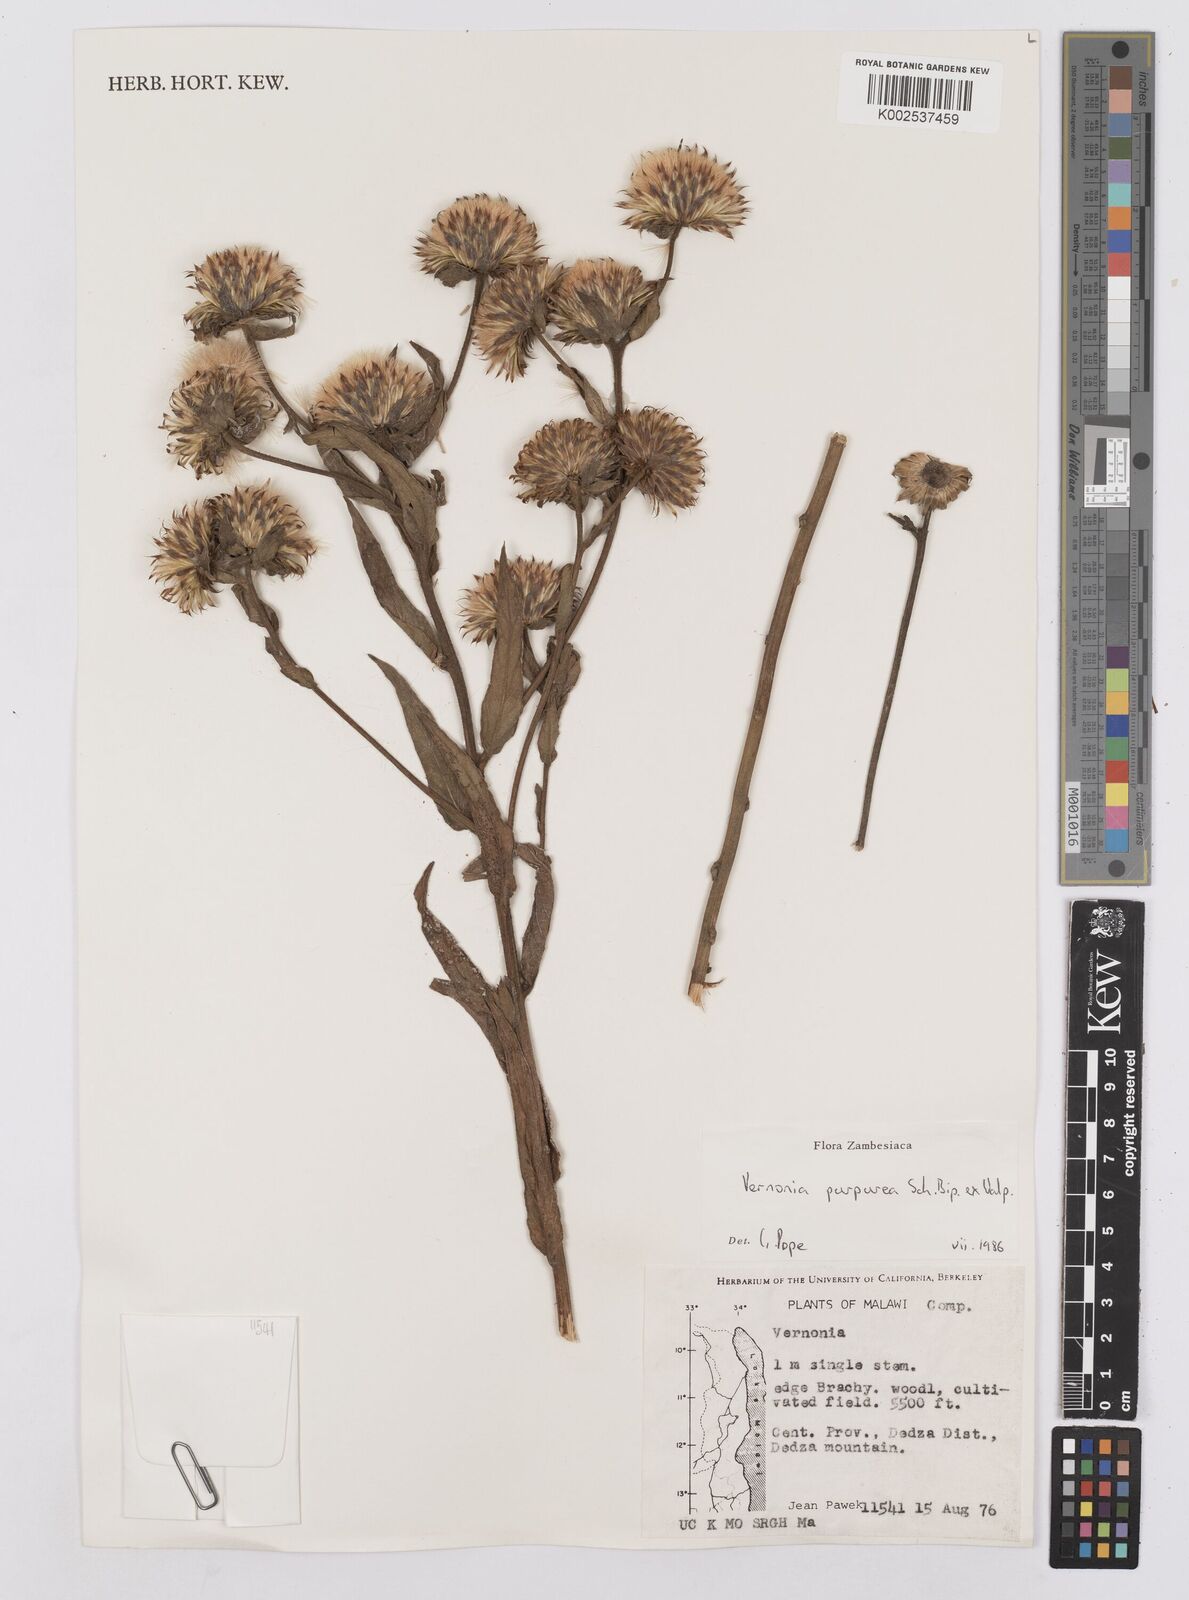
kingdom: Plantae
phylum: Tracheophyta
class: Magnoliopsida
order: Asterales
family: Asteraceae
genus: Nothovernonia
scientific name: Nothovernonia purpurea
